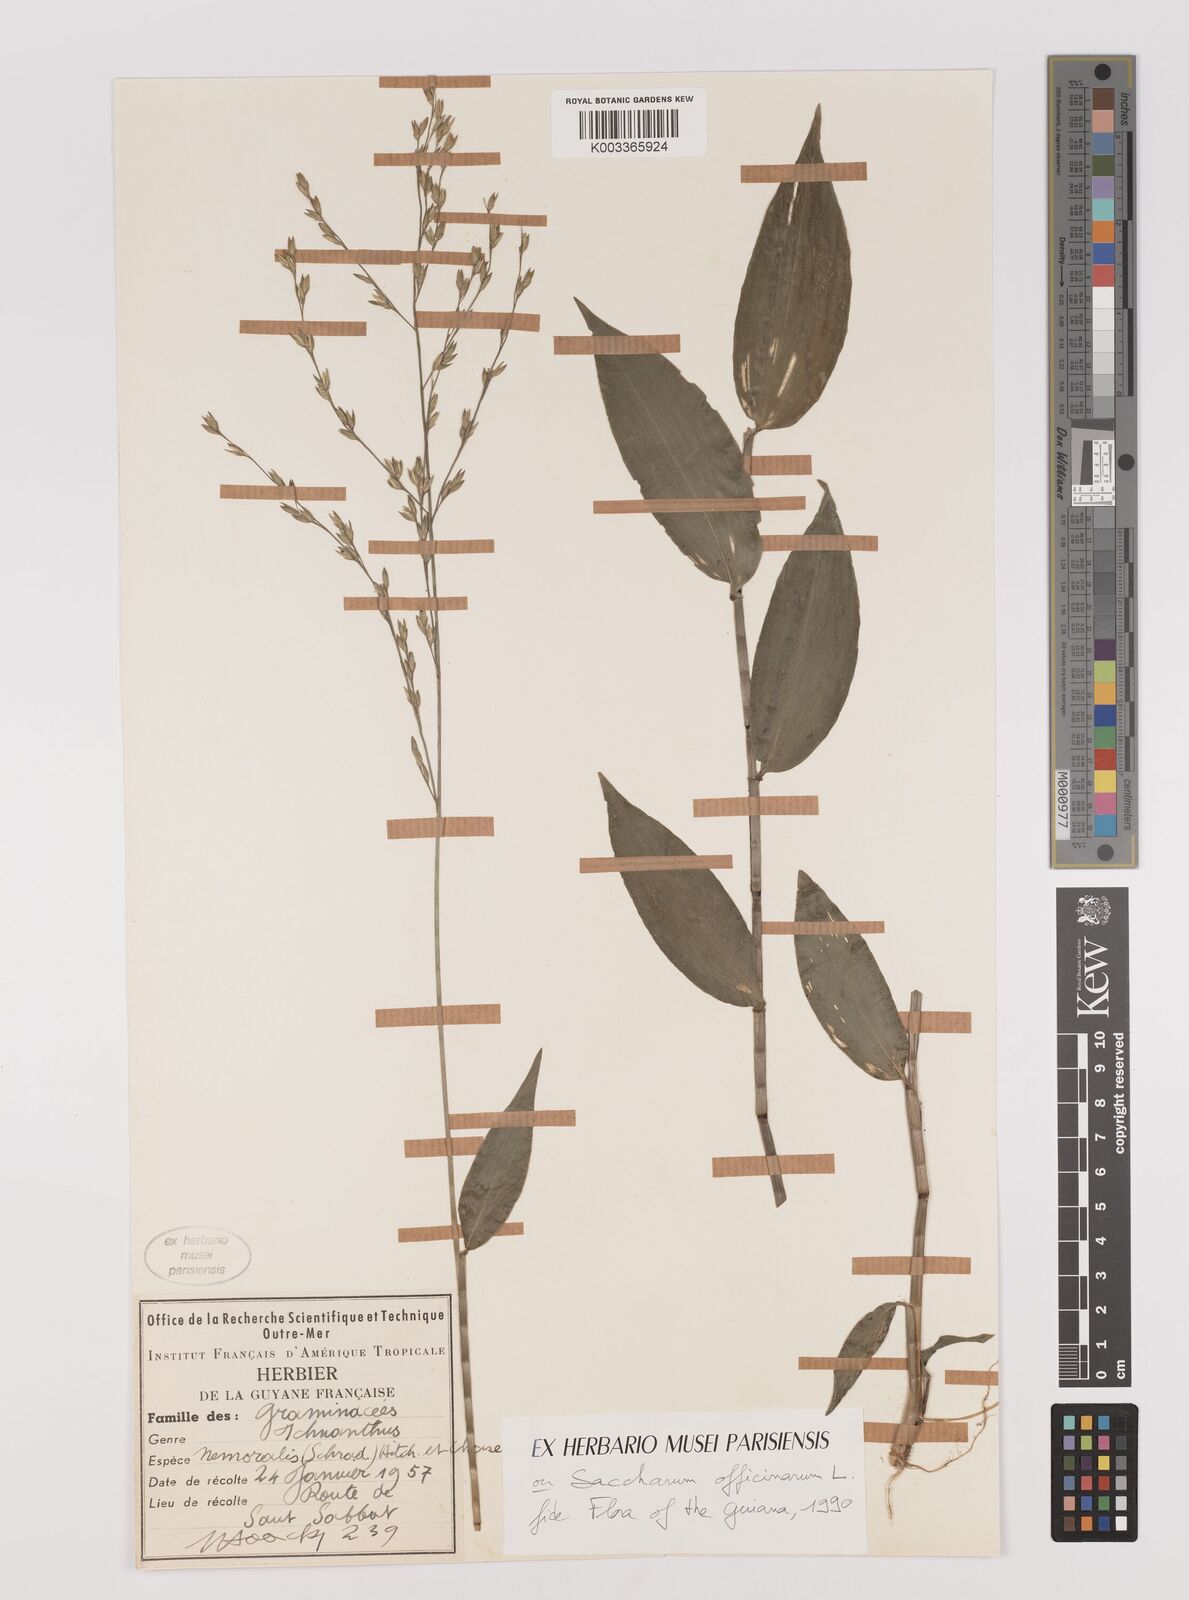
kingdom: Plantae
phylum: Tracheophyta
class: Liliopsida
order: Poales
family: Poaceae
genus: Ichnanthus
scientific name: Ichnanthus nemoralis
